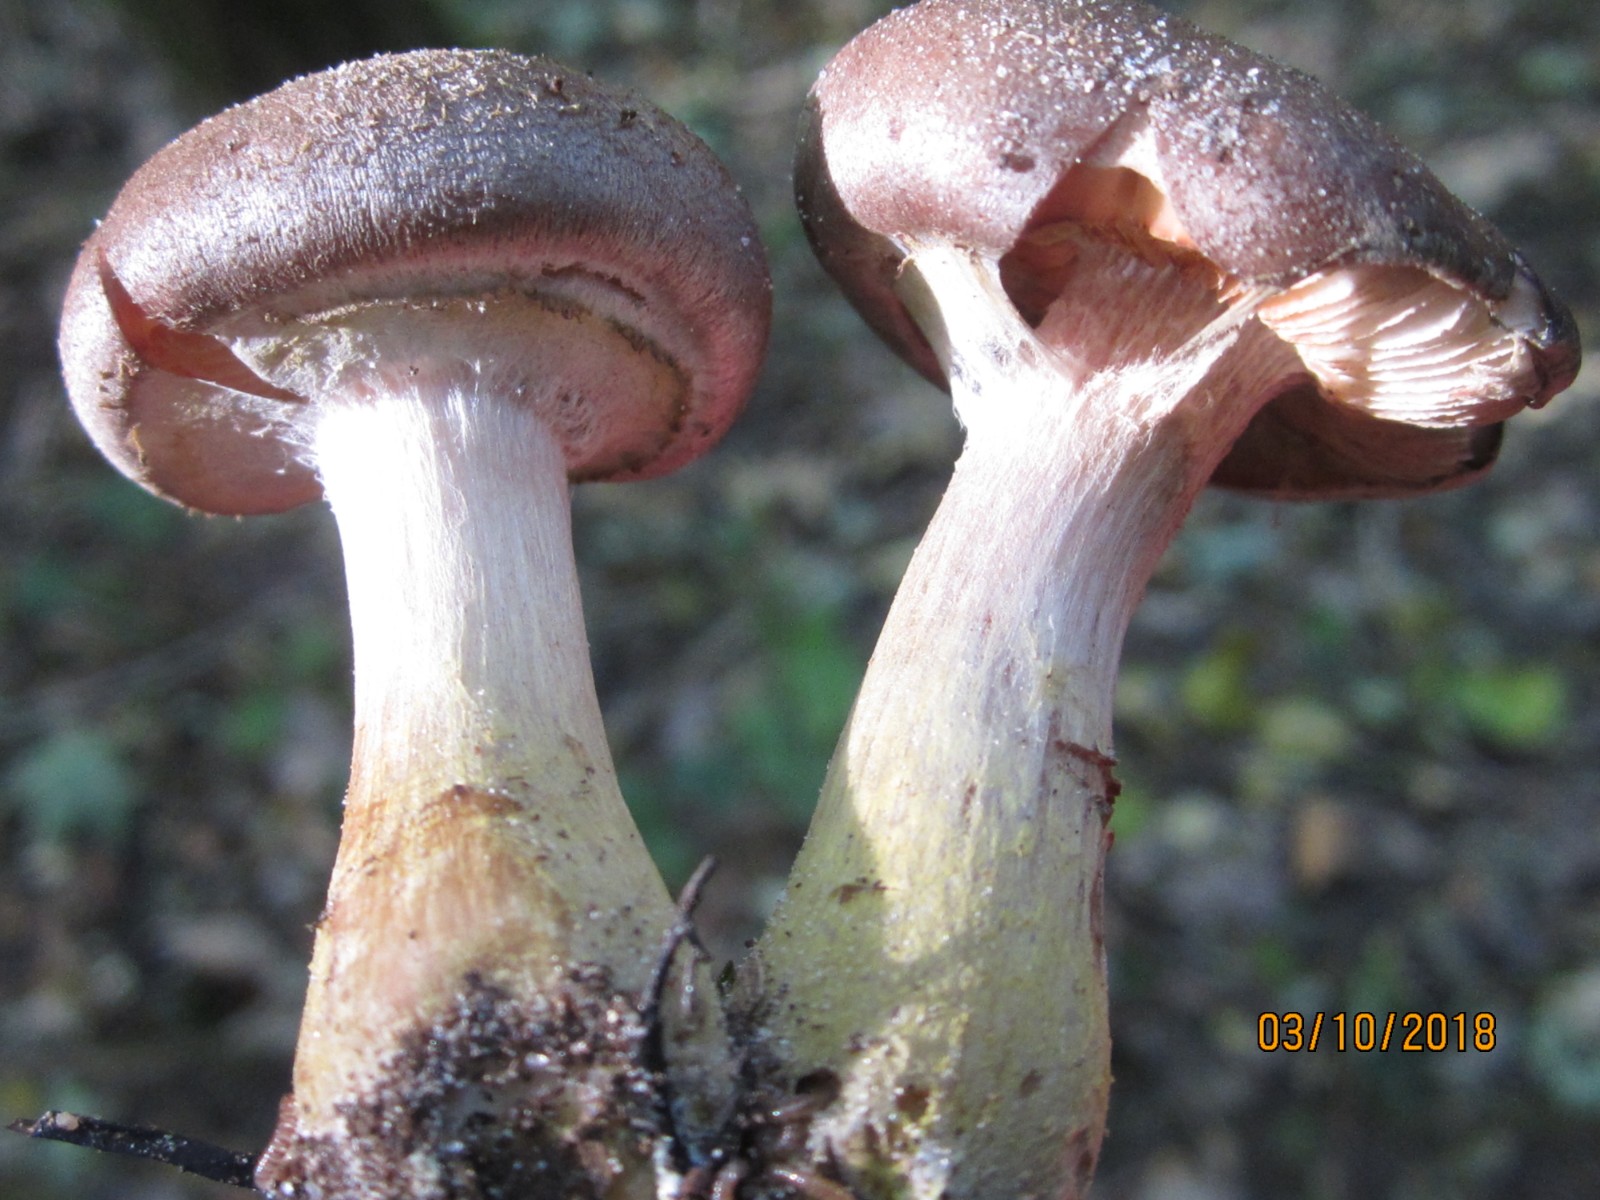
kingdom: Fungi
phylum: Basidiomycota
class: Agaricomycetes
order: Agaricales
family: Physalacriaceae
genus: Armillaria
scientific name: Armillaria lutea
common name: køllestokket honningsvamp
